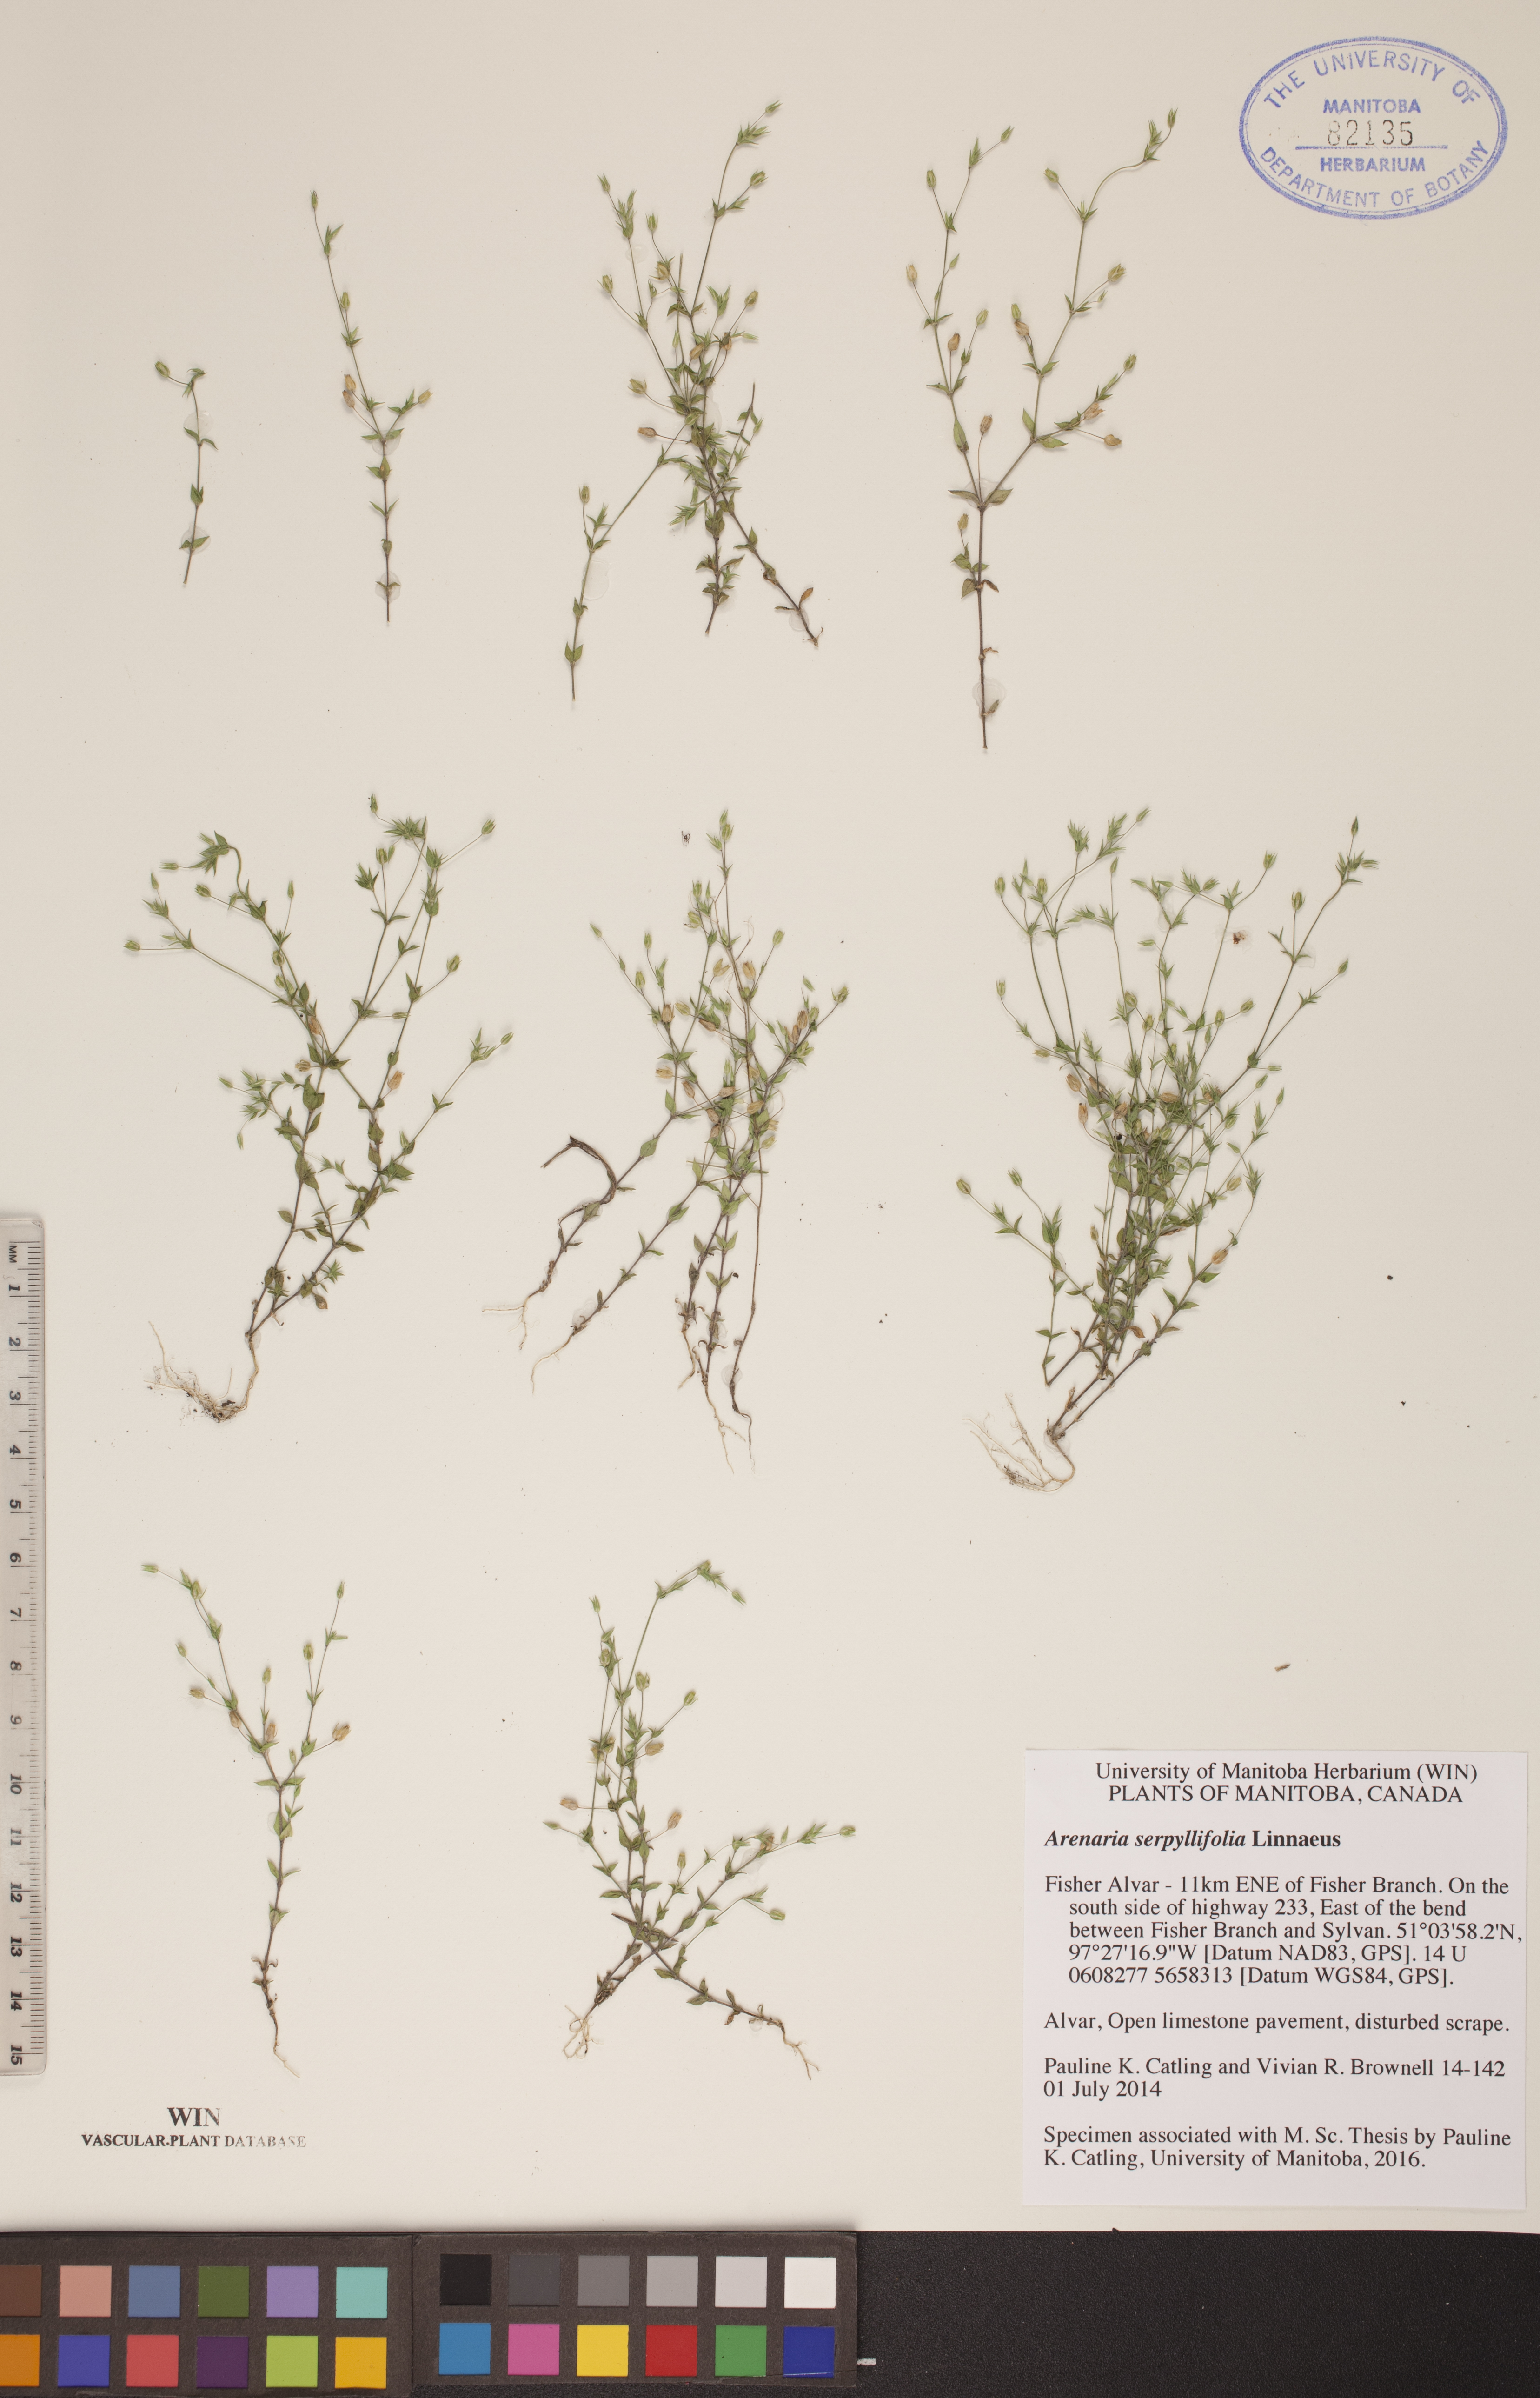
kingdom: Plantae
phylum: Tracheophyta
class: Magnoliopsida
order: Caryophyllales
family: Caryophyllaceae
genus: Arenaria
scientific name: Arenaria serpyllifolia
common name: Thyme-leaved sandwort
